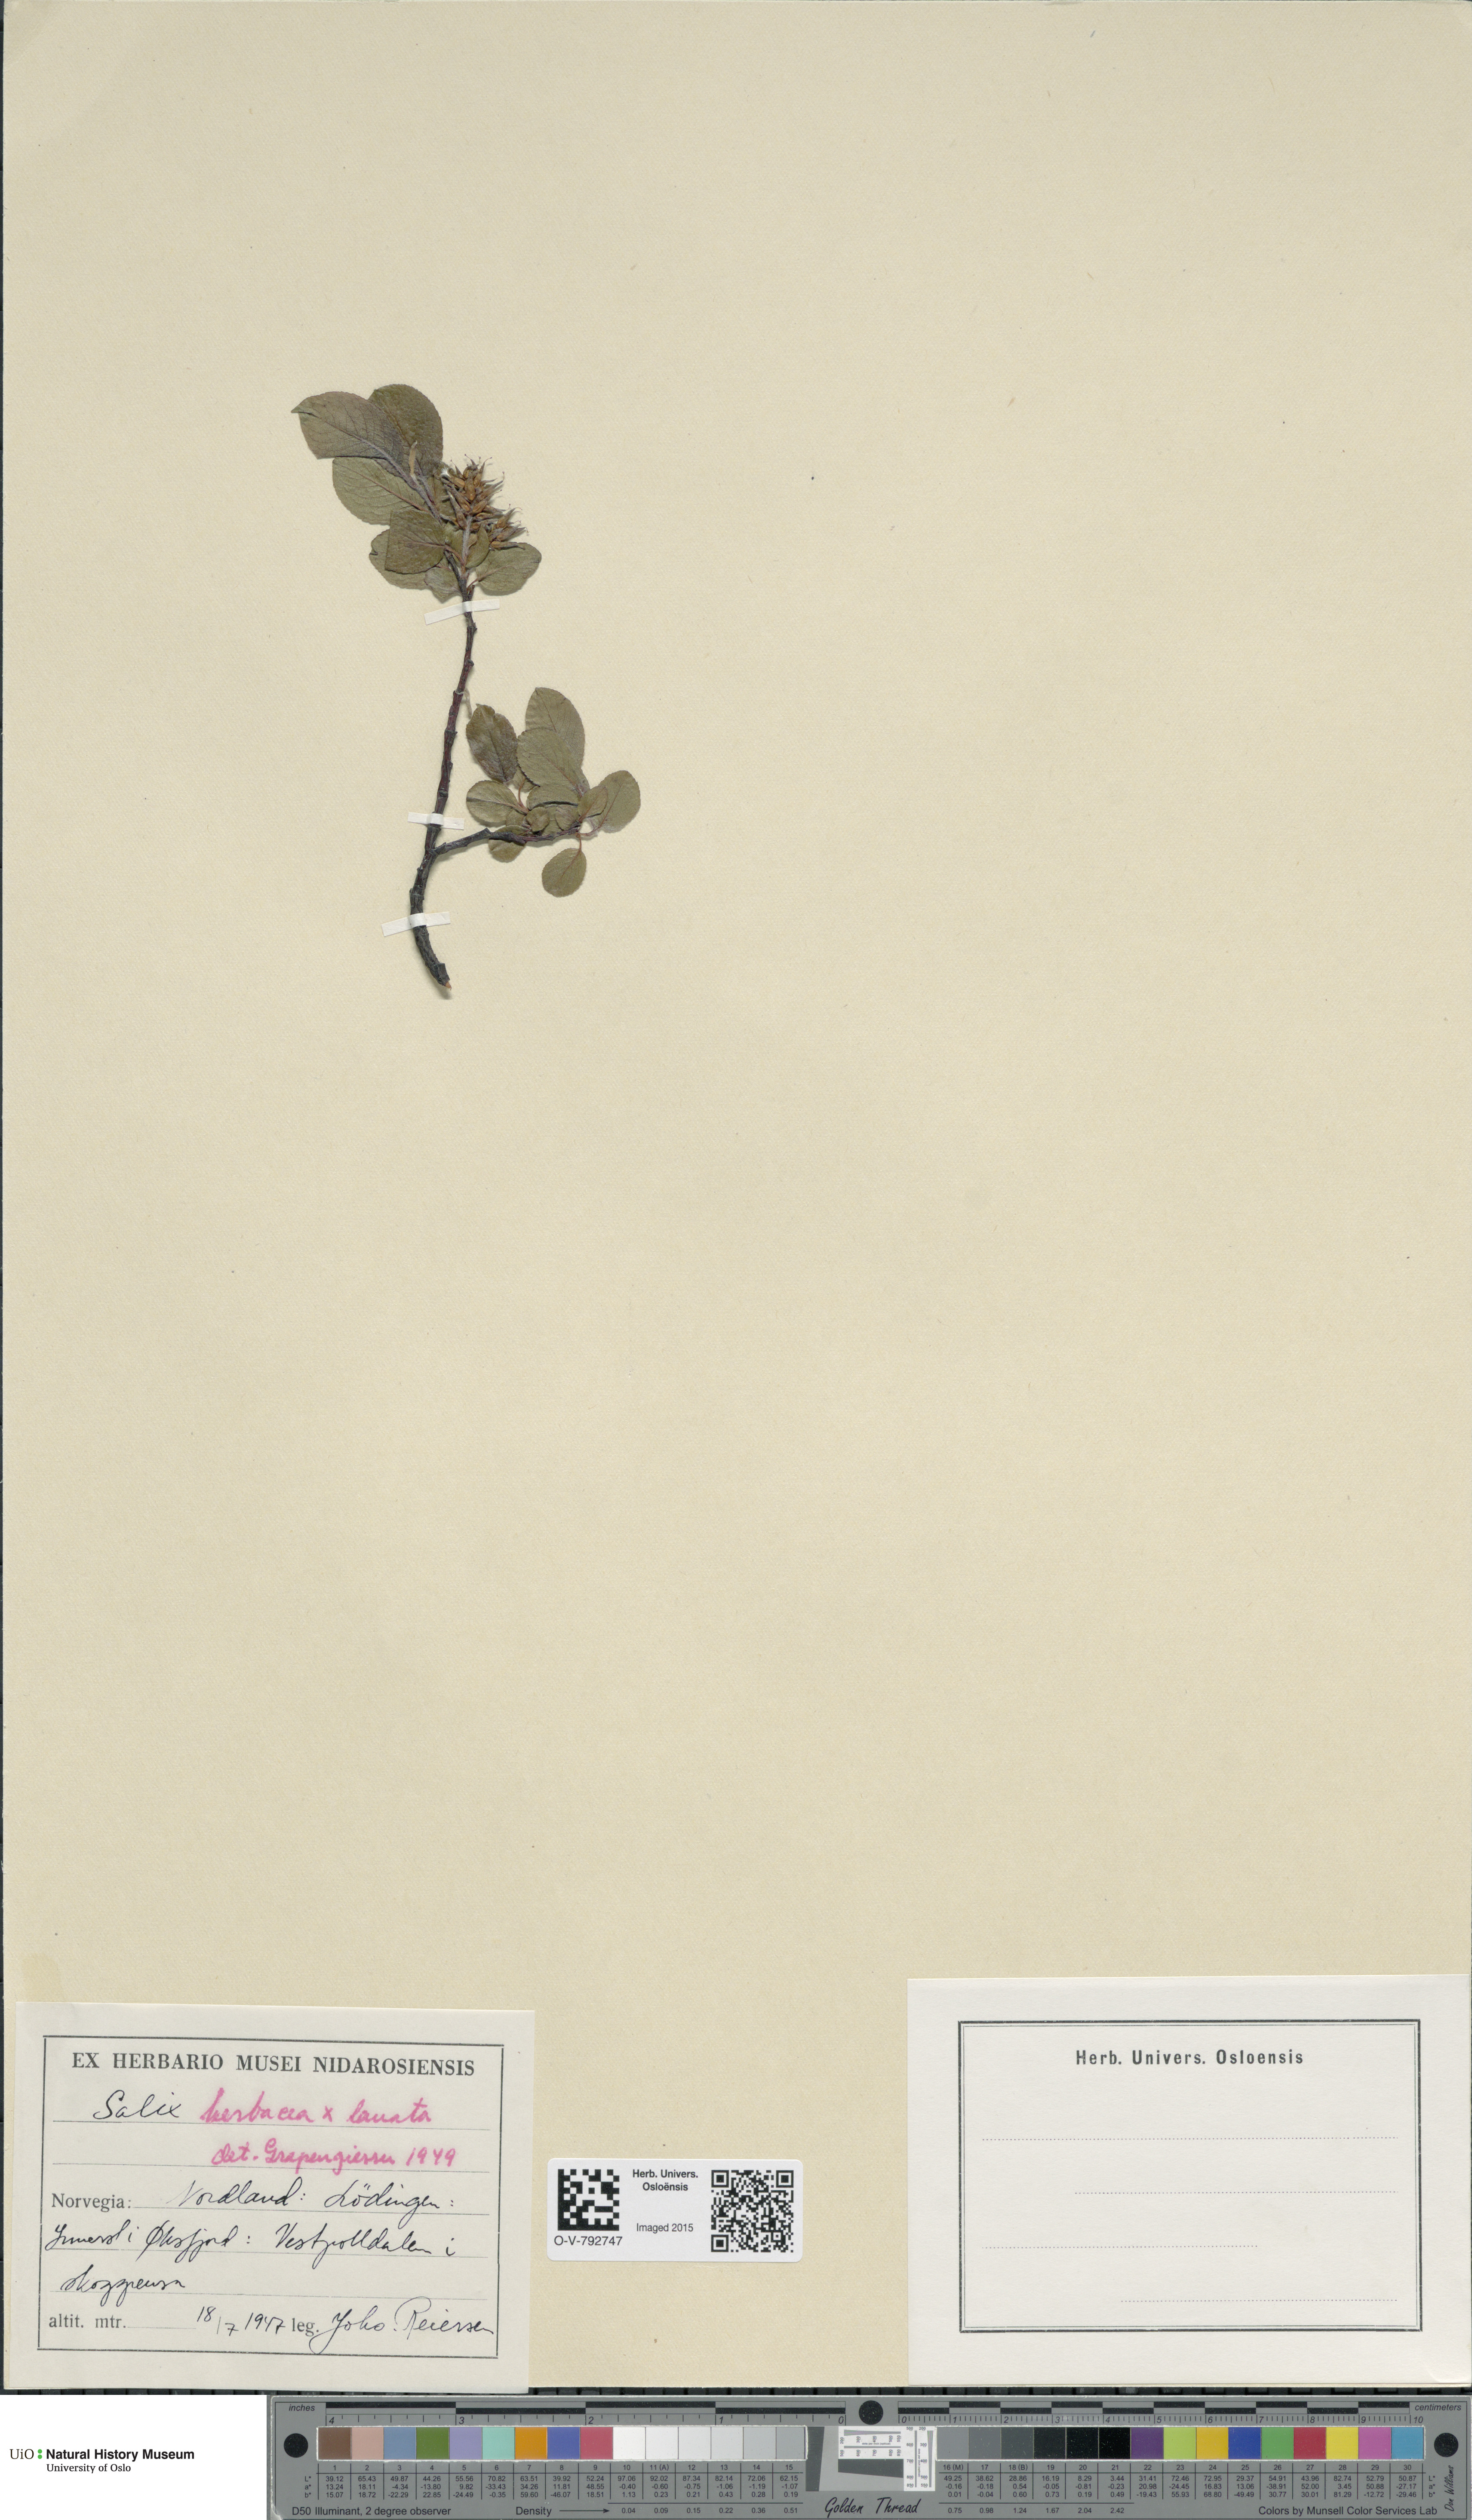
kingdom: Plantae
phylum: Tracheophyta
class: Magnoliopsida
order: Malpighiales
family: Salicaceae
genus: Salix
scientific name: Salix
